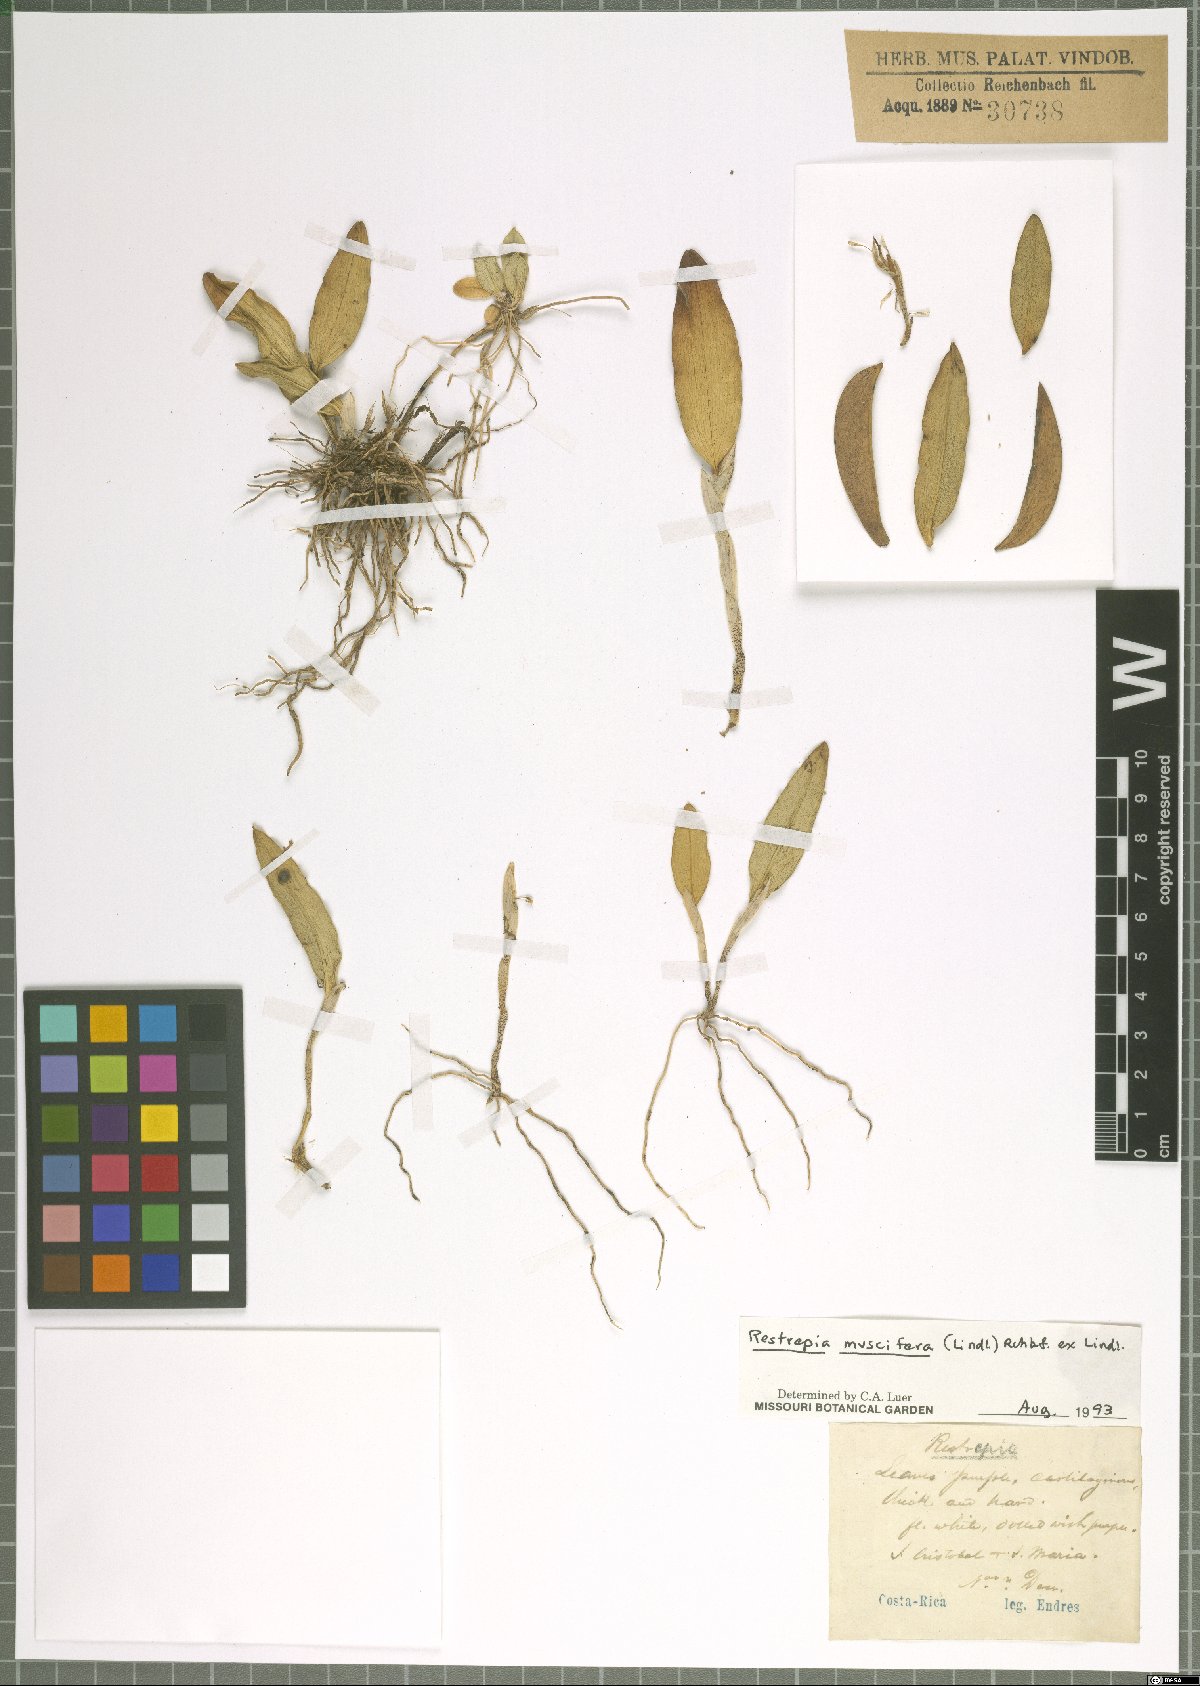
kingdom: Plantae
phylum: Tracheophyta
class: Liliopsida
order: Asparagales
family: Orchidaceae
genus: Restrepia
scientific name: Restrepia muscifera
